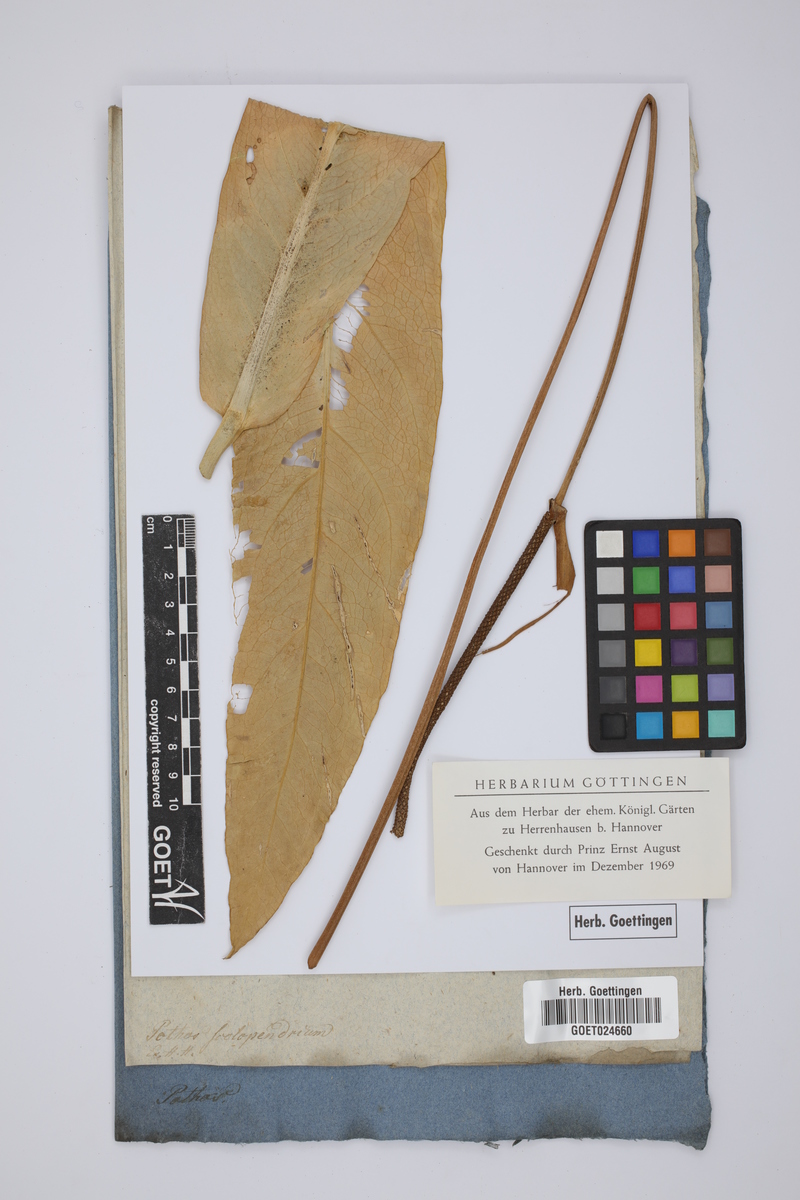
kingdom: Plantae
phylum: Tracheophyta
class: Liliopsida
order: Alismatales
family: Araceae
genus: Anthurium
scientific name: Anthurium crenatum
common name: Scalloped laceleaf
